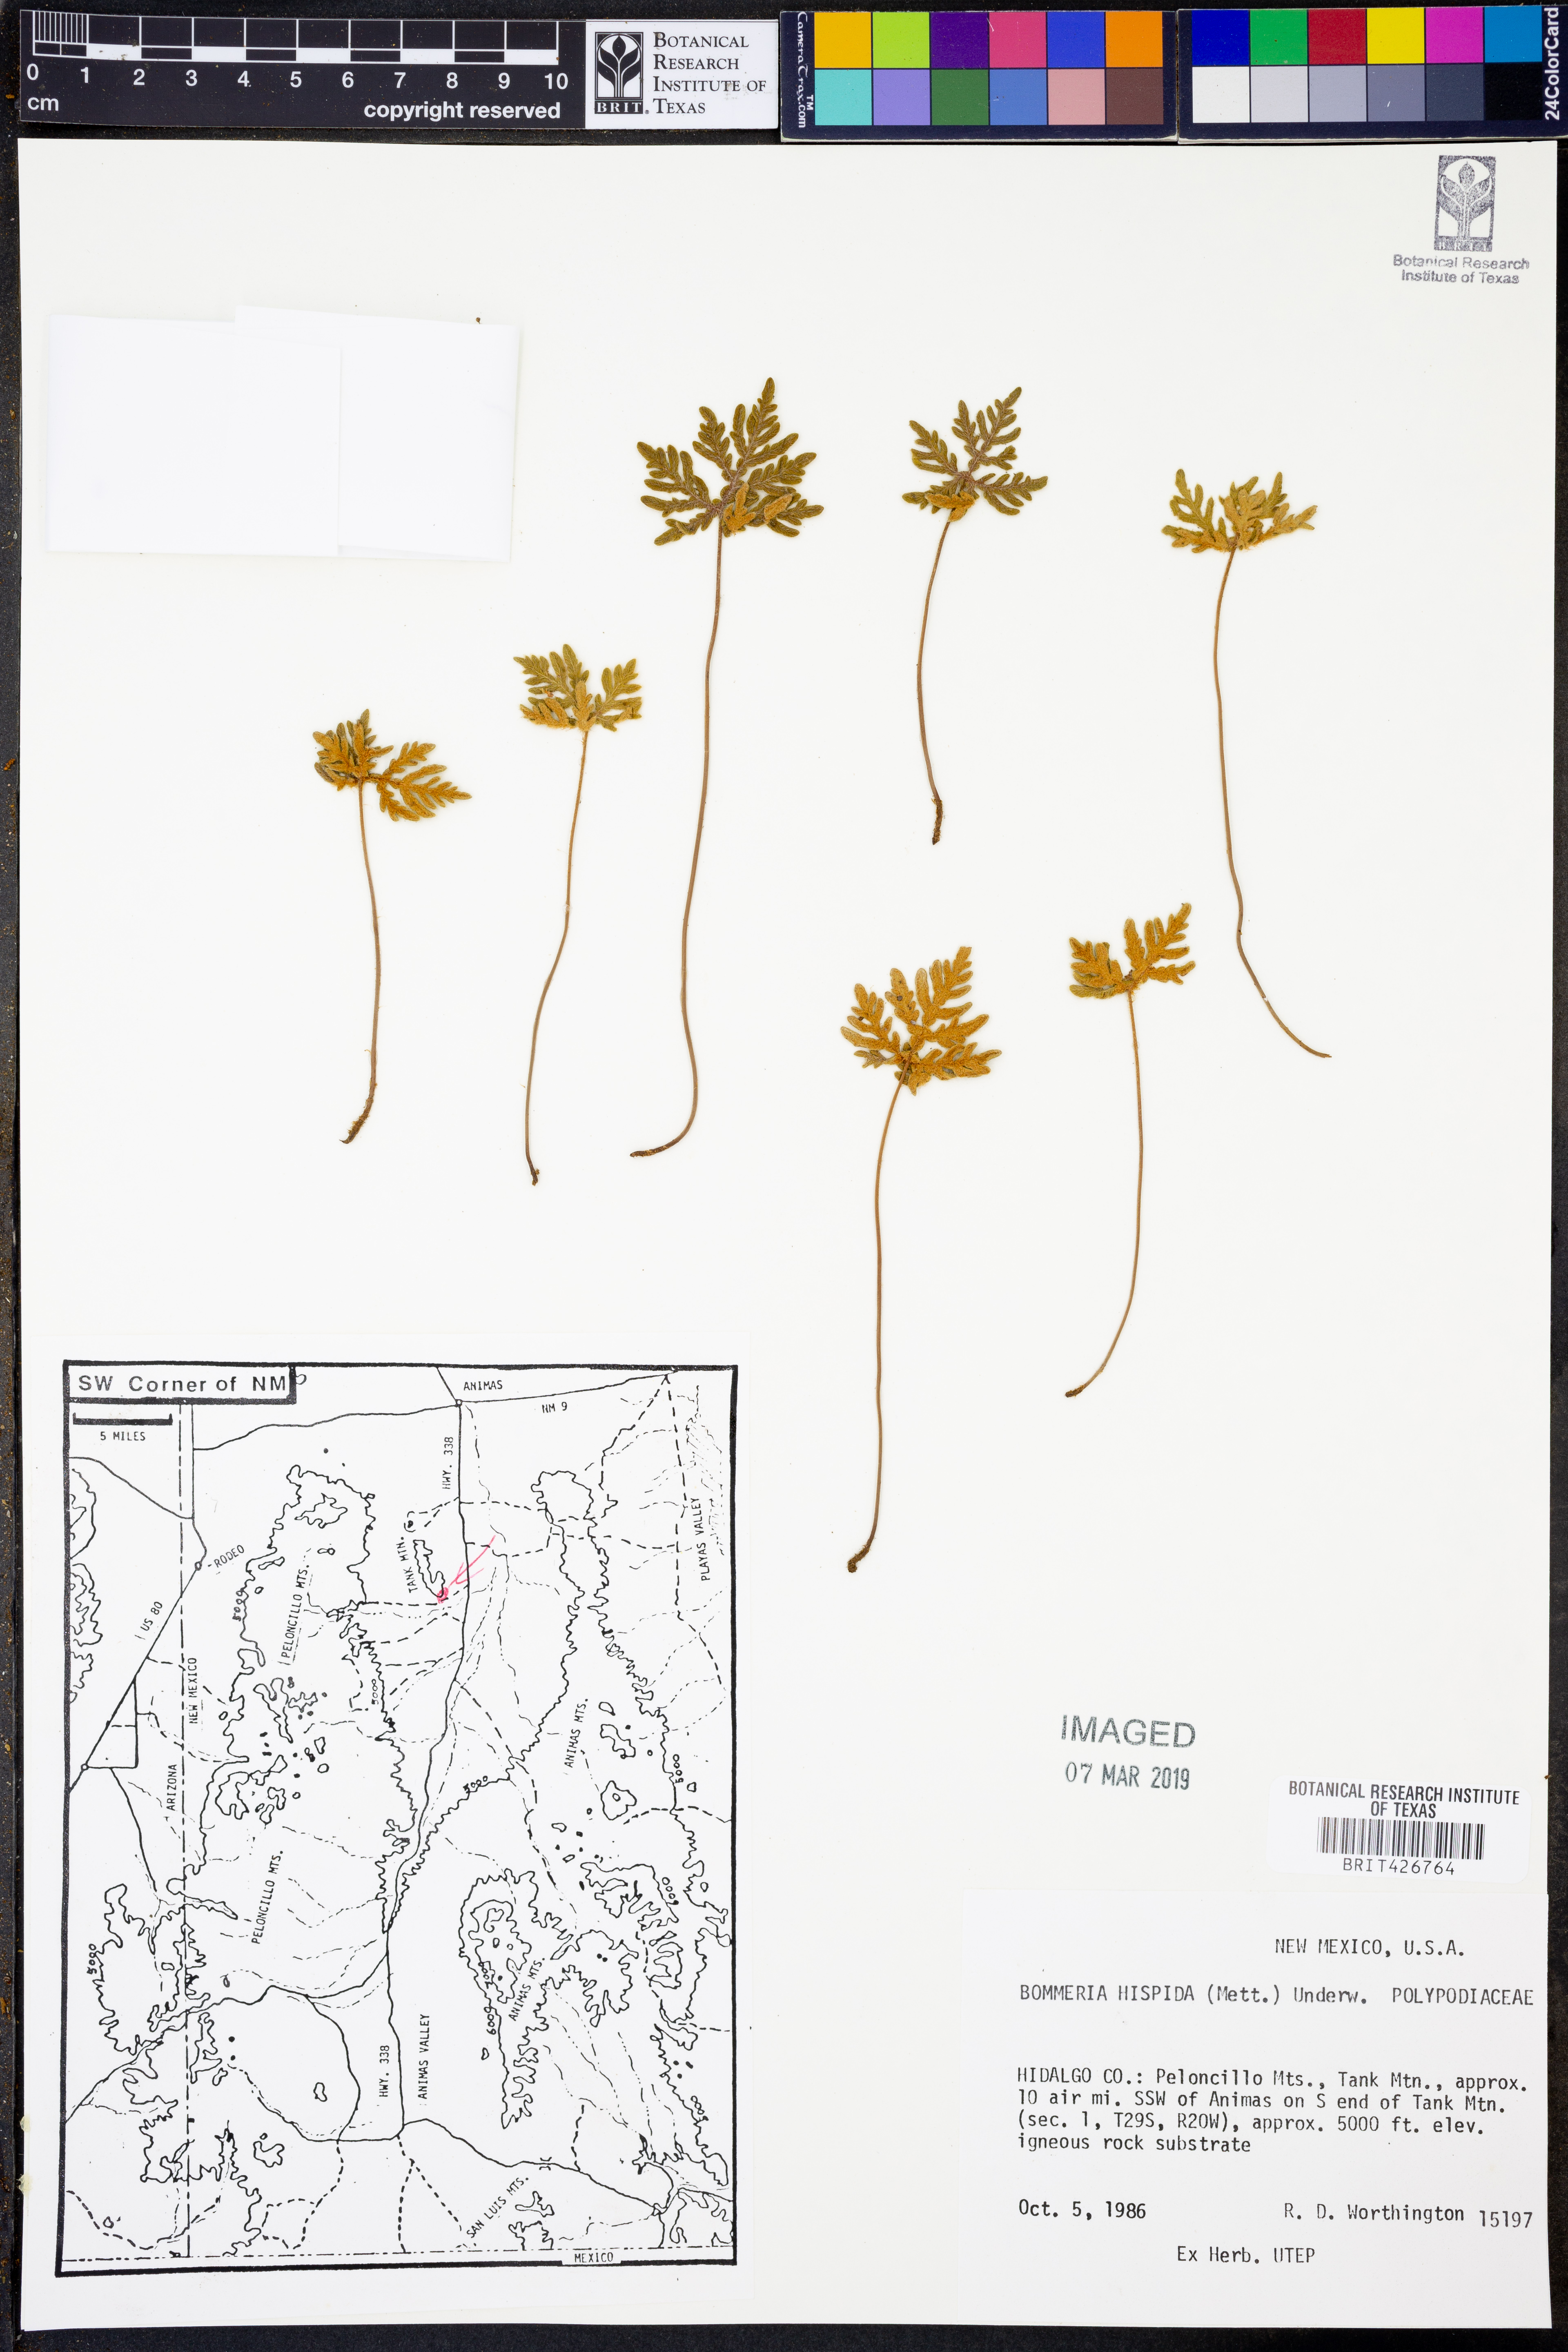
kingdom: Plantae
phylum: Tracheophyta
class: Polypodiopsida
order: Polypodiales
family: Pteridaceae
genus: Bommeria
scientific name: Bommeria hispida
